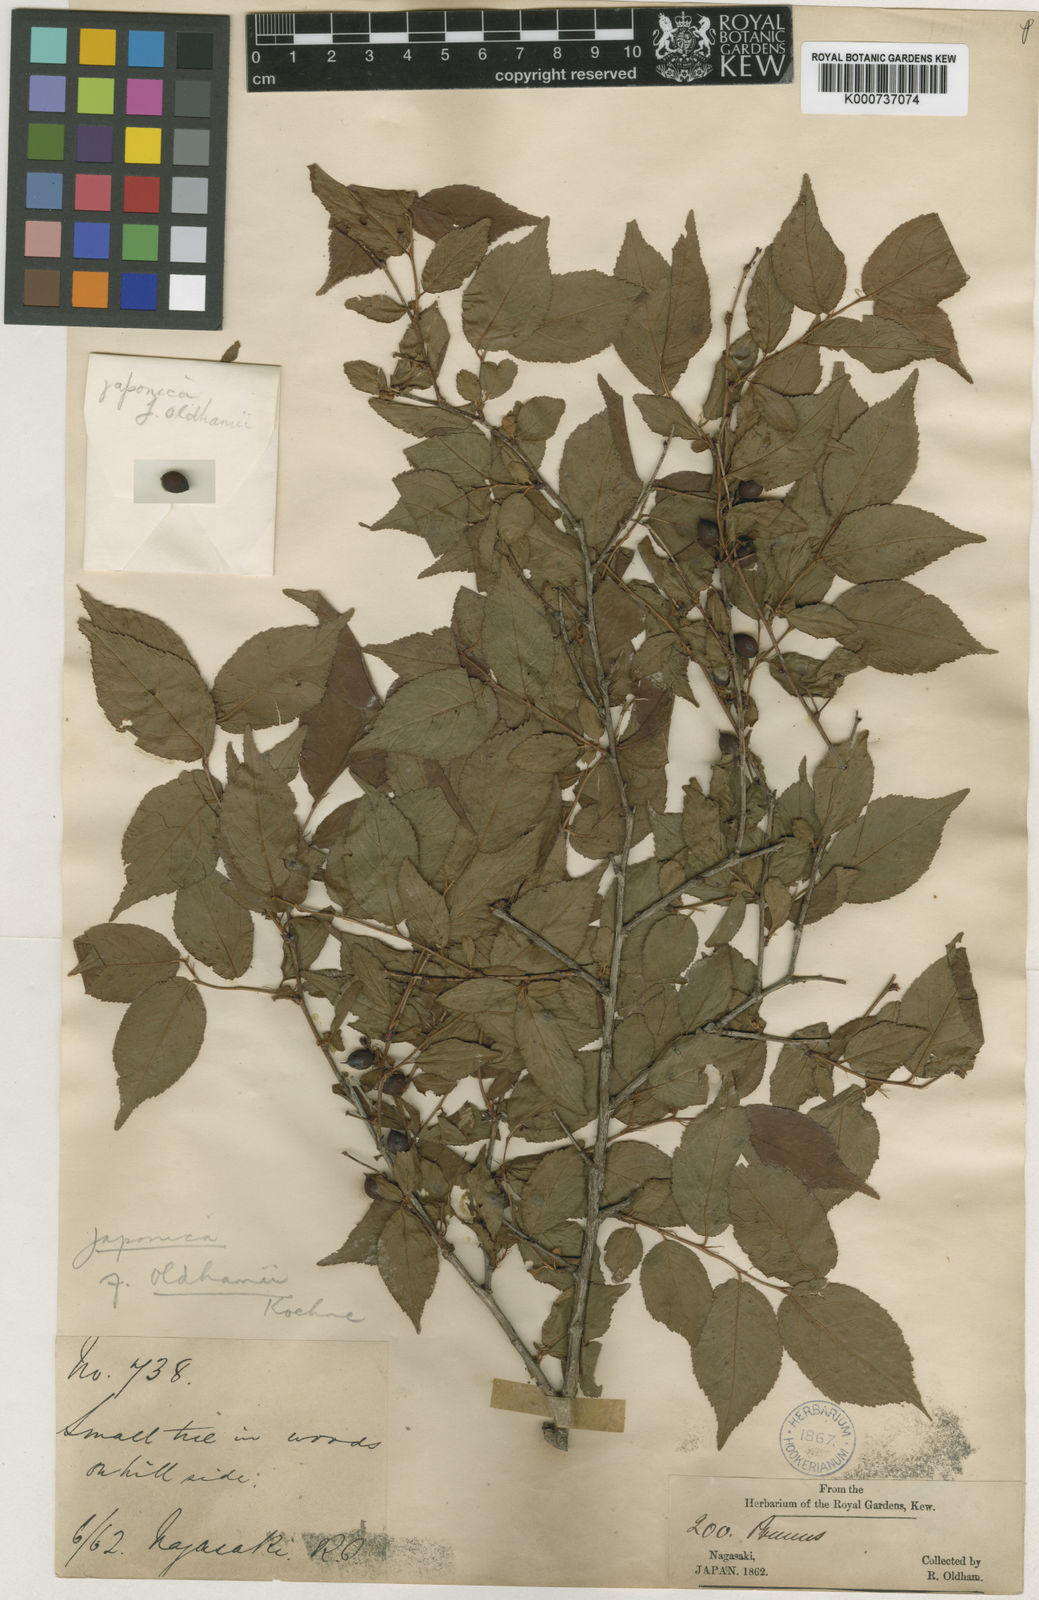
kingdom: Plantae
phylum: Tracheophyta
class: Magnoliopsida
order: Rosales
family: Rosaceae
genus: Prunus
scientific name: Prunus japonica
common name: Chinese bush cherry
